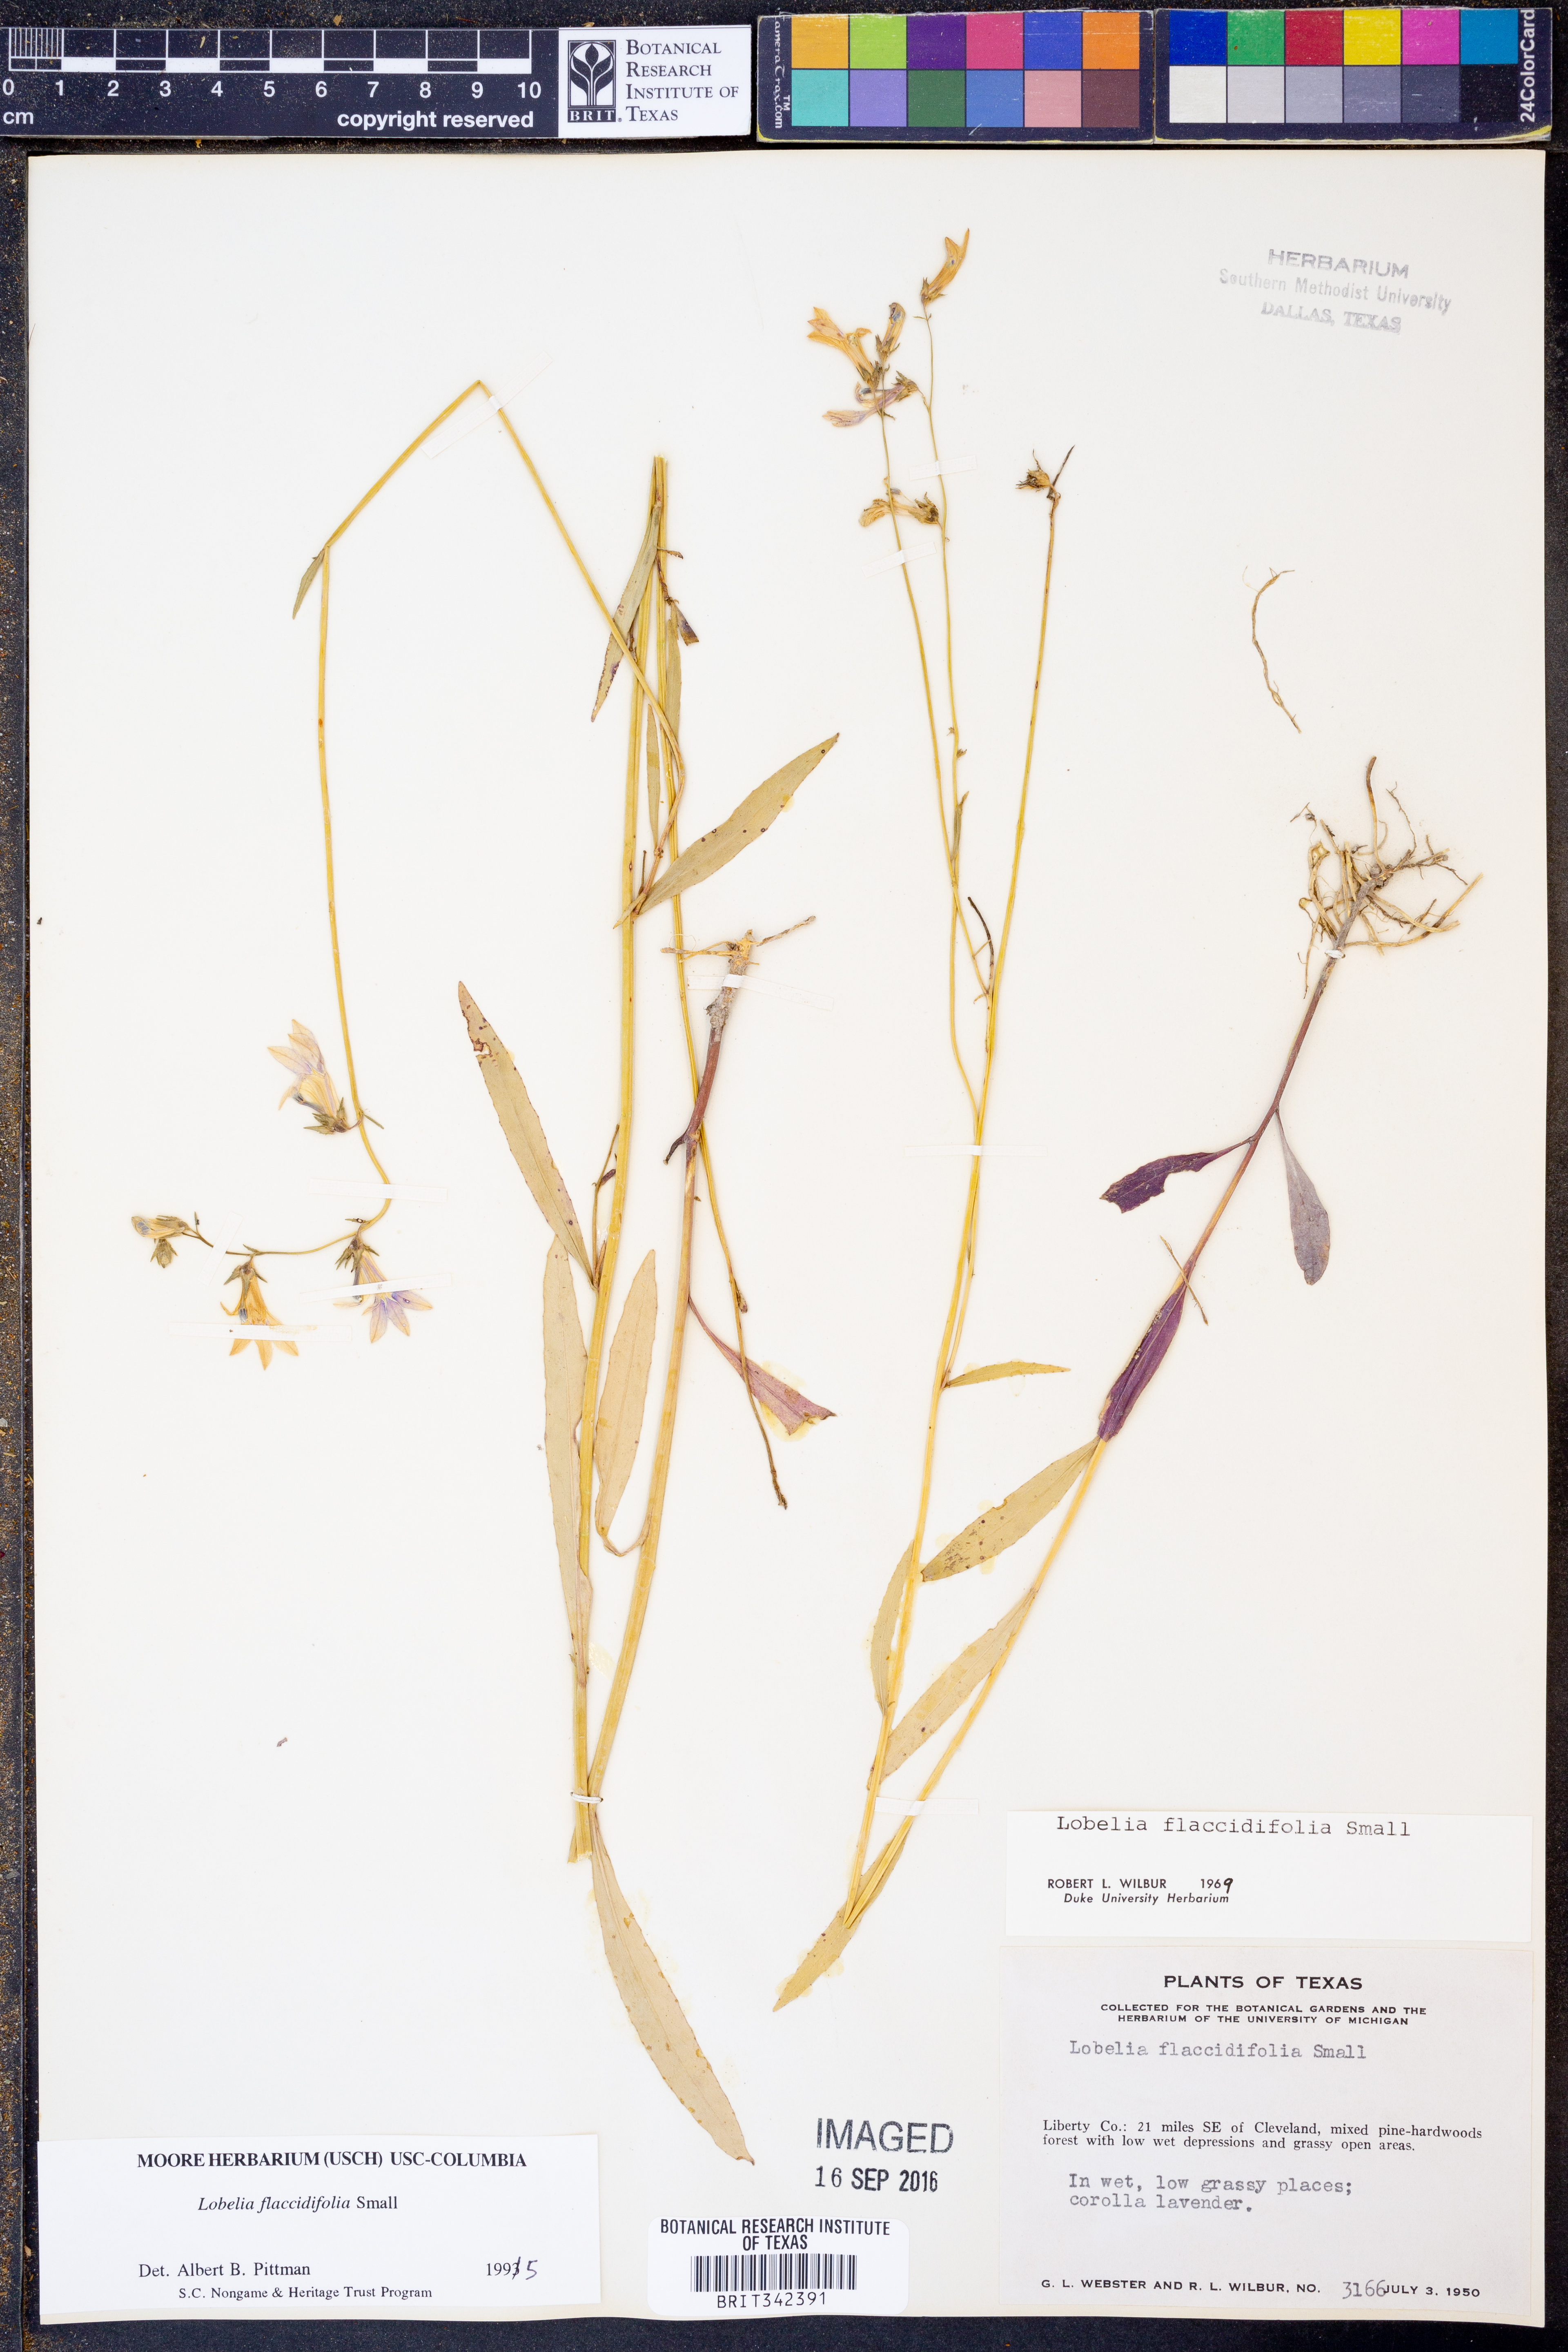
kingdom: Plantae
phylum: Tracheophyta
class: Magnoliopsida
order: Asterales
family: Campanulaceae
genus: Lobelia
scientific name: Lobelia flaccidifolia
